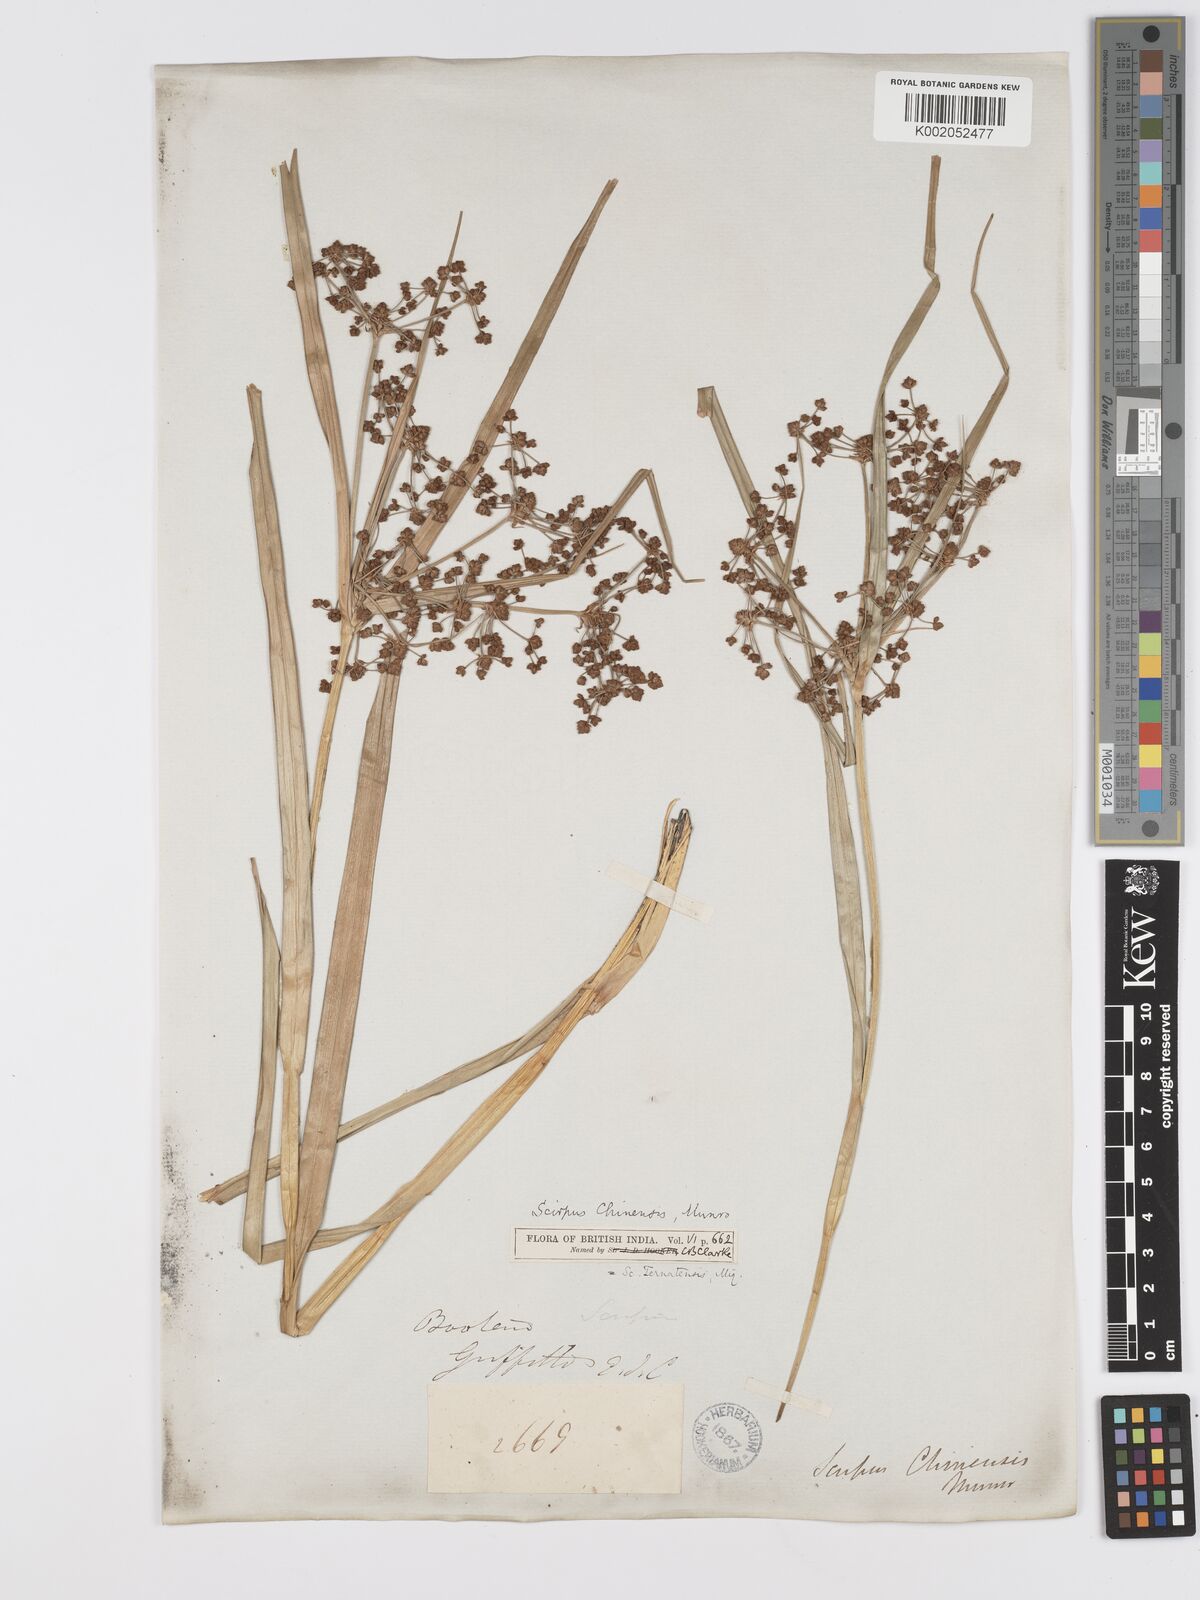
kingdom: Plantae
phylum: Tracheophyta
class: Liliopsida
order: Poales
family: Cyperaceae
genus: Scirpus
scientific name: Scirpus ternatanus
